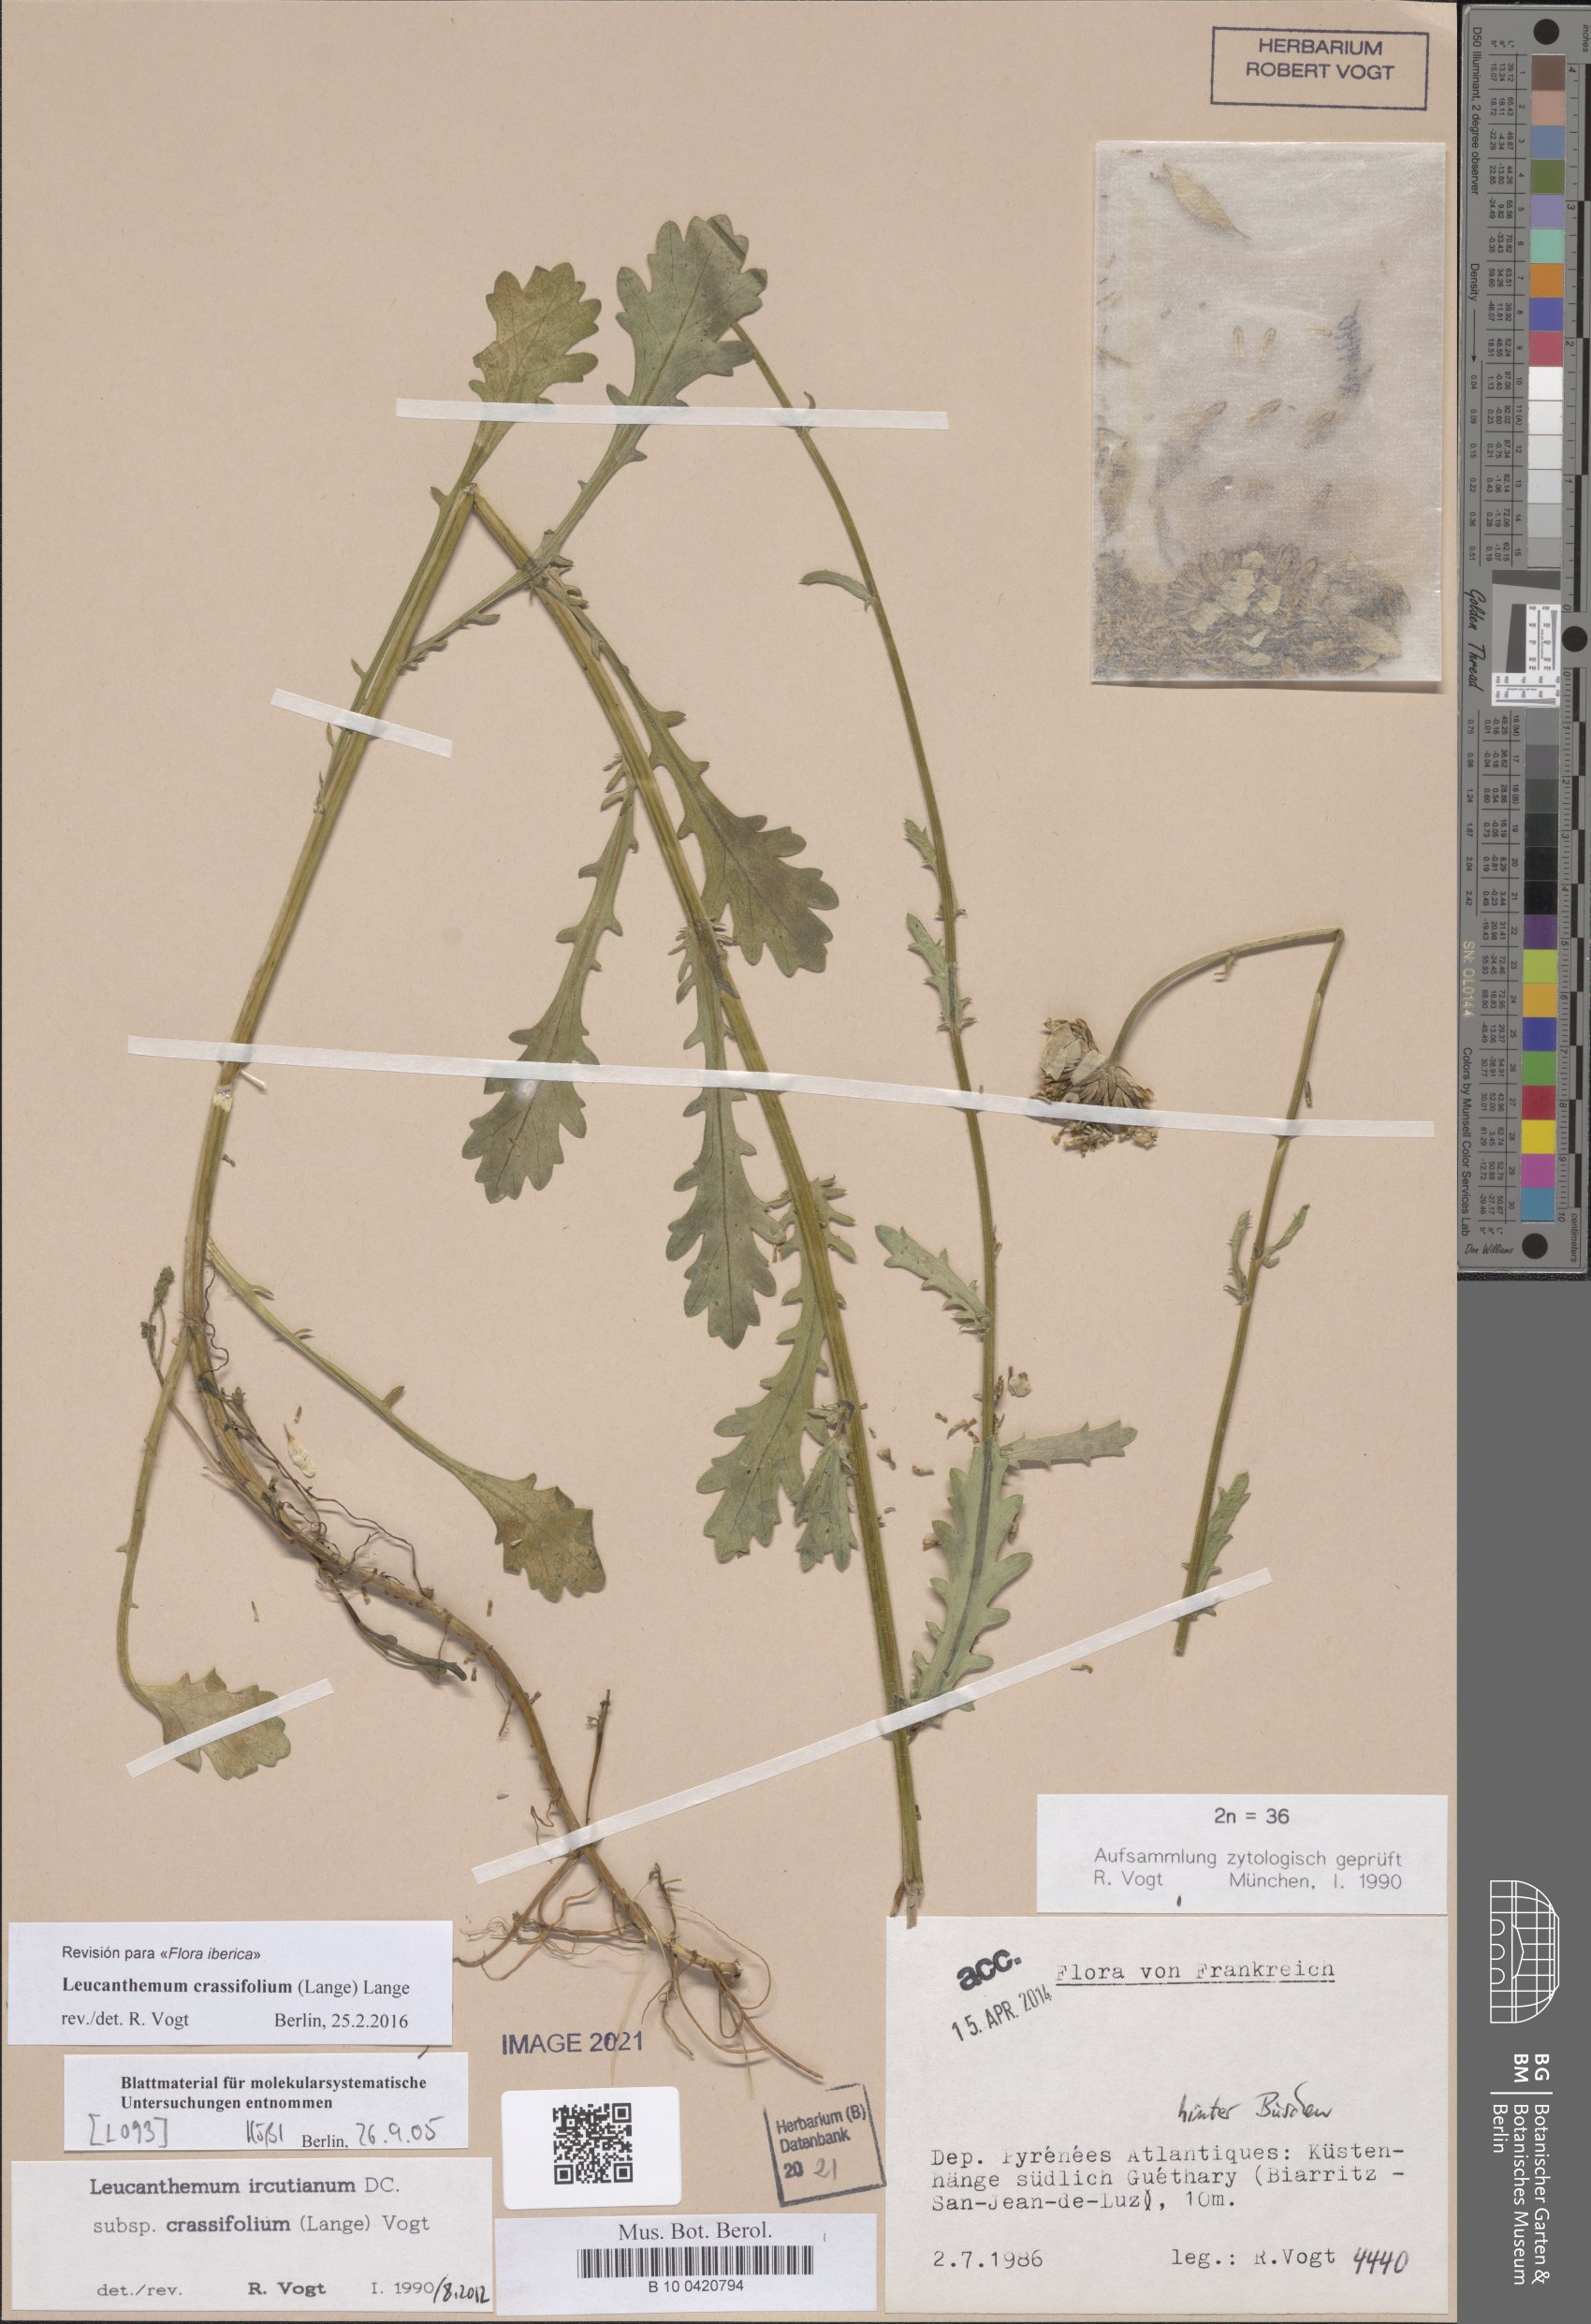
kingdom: Plantae
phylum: Tracheophyta
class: Magnoliopsida
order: Asterales
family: Asteraceae
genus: Leucanthemum
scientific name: Leucanthemum crassifolium
